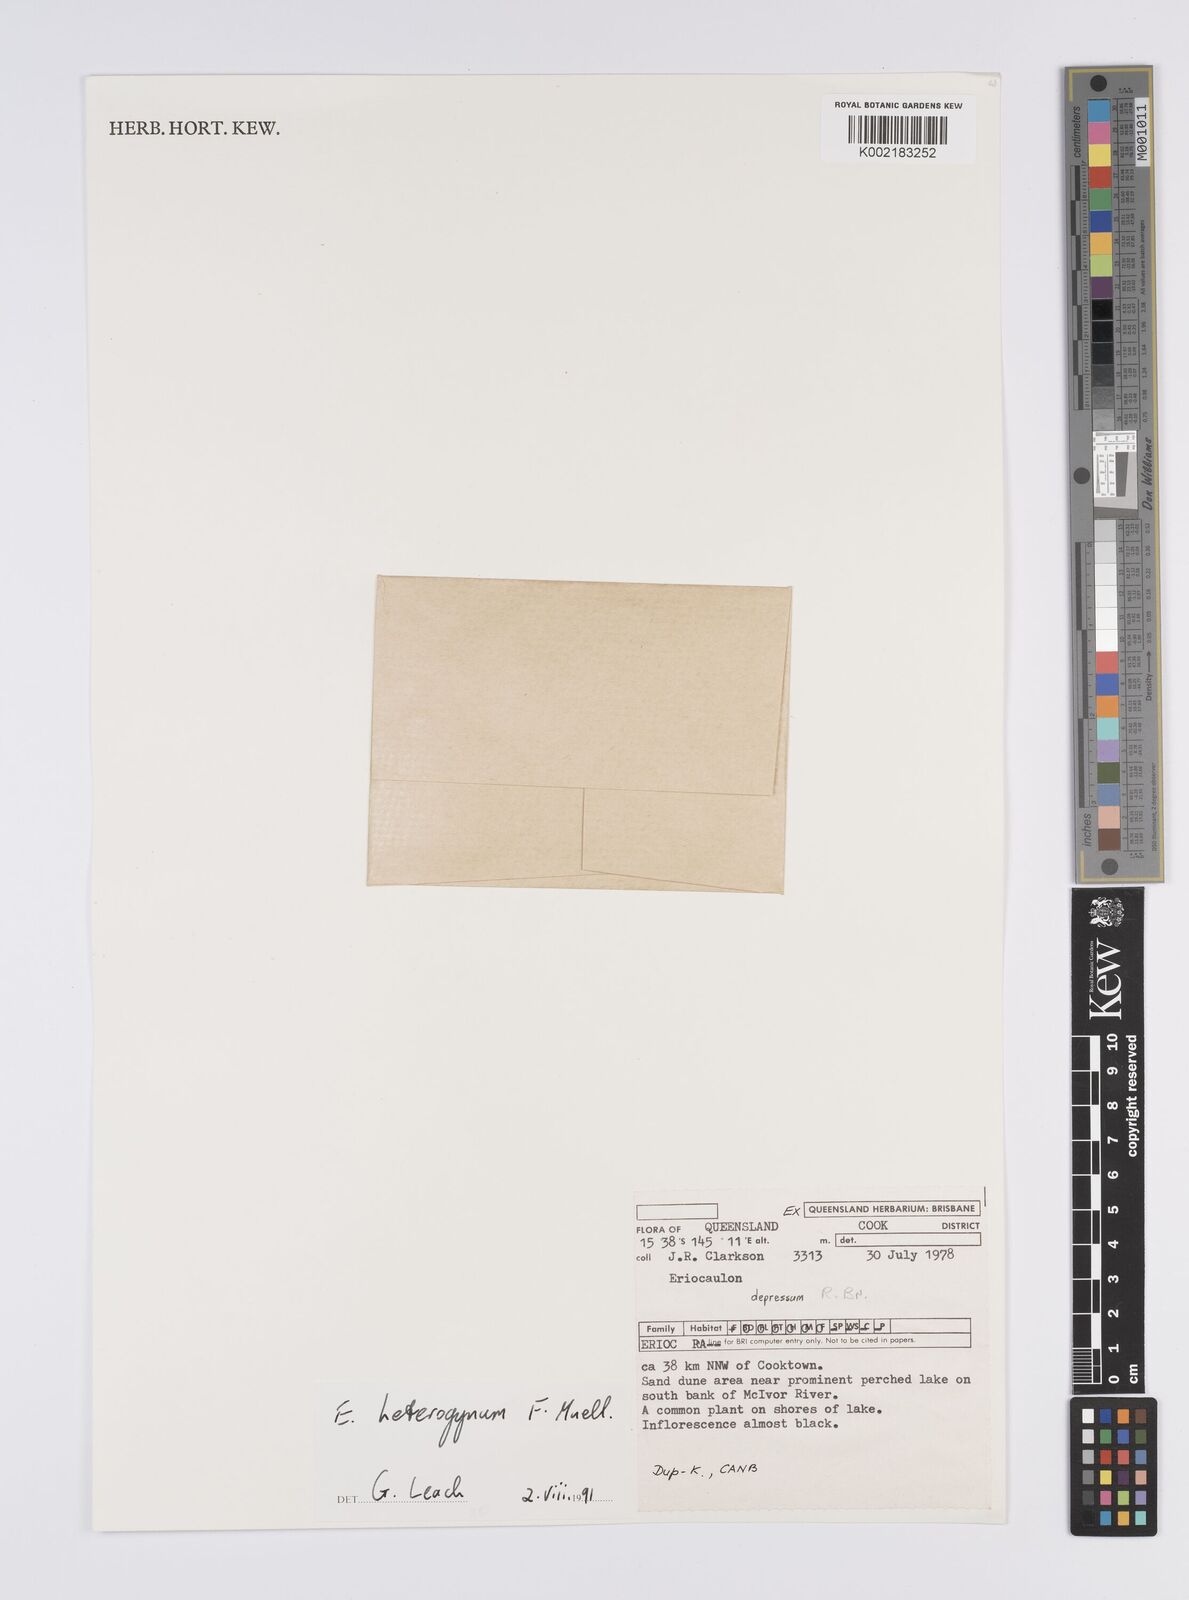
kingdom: Plantae
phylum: Tracheophyta
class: Liliopsida
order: Poales
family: Eriocaulaceae
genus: Eriocaulon
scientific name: Eriocaulon depressum
